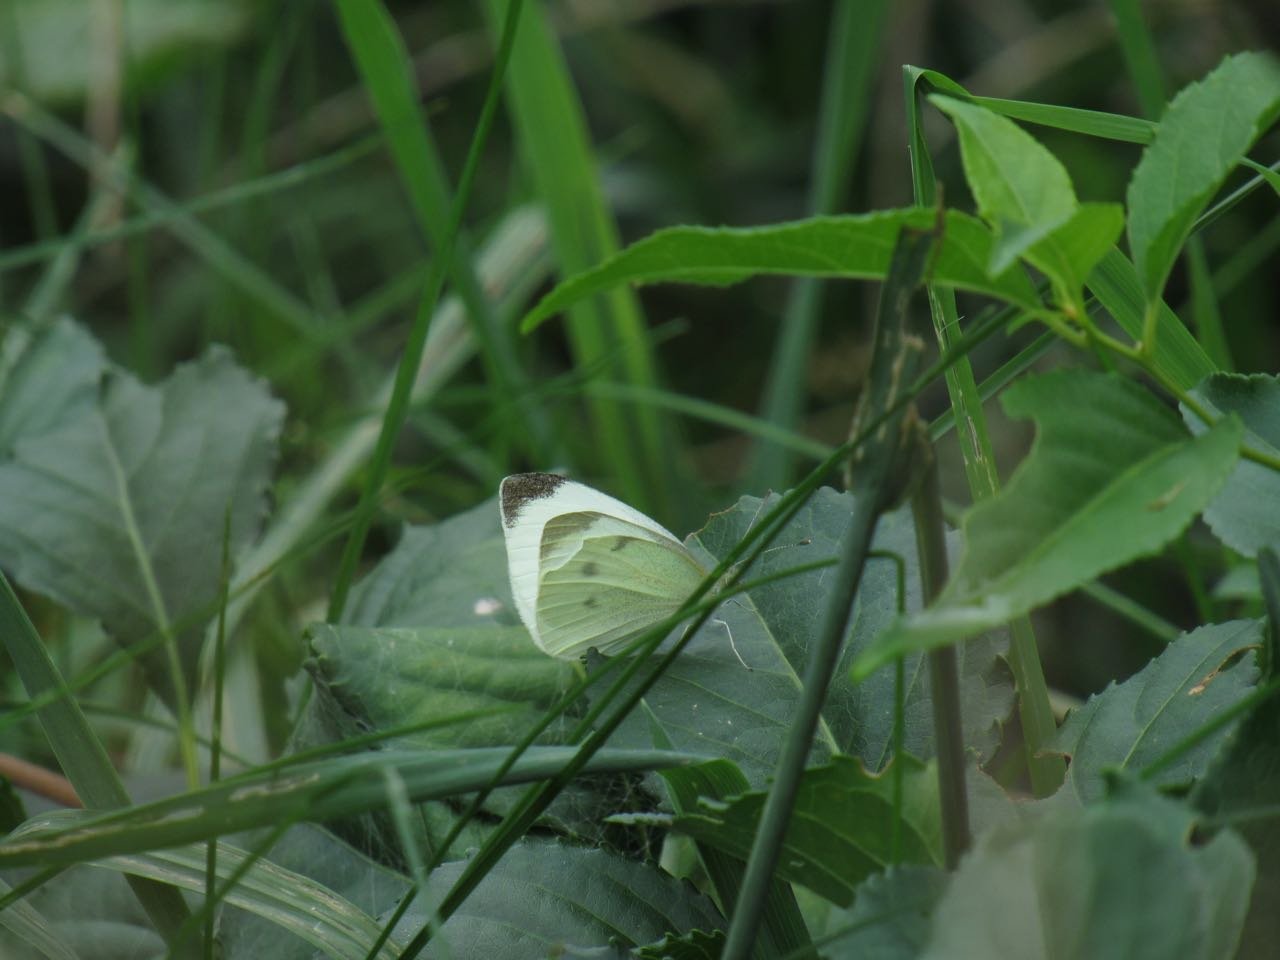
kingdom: Animalia
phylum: Arthropoda
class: Insecta
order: Lepidoptera
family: Pieridae
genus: Pieris
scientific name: Pieris rapae
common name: Cabbage White
